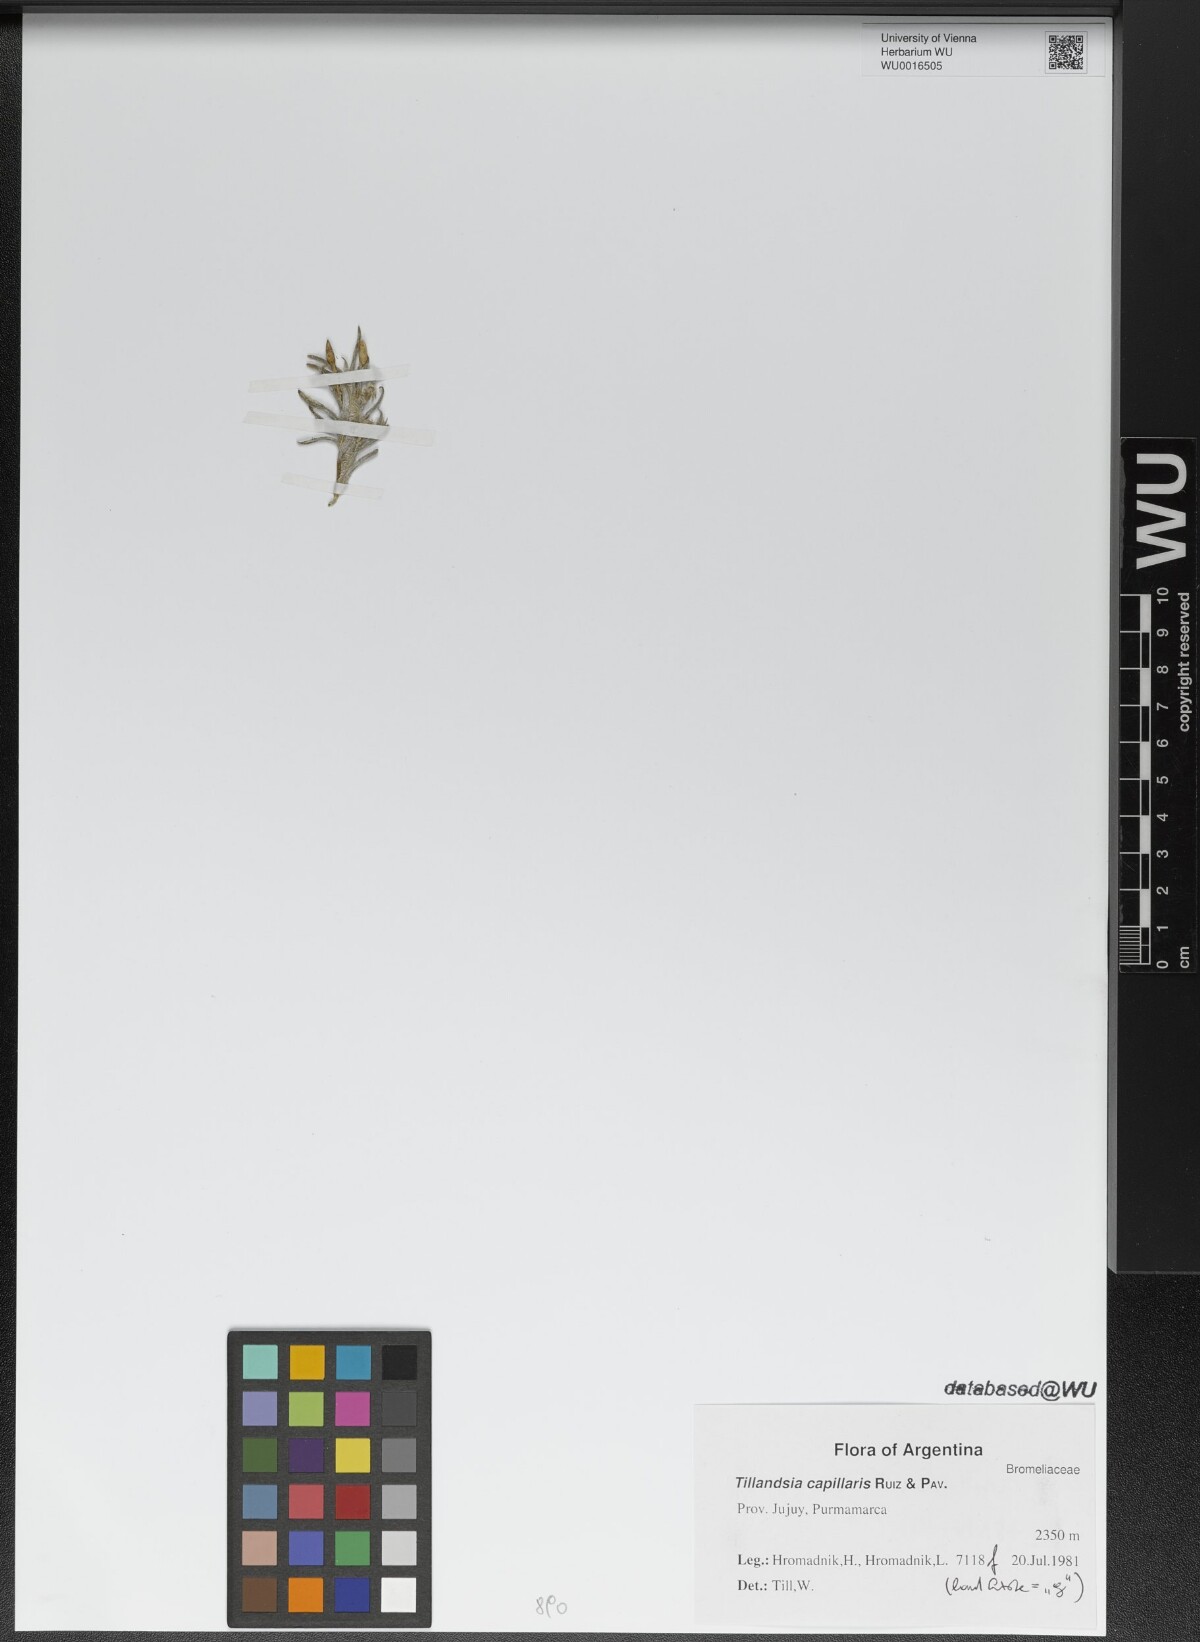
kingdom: Plantae
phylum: Tracheophyta
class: Liliopsida
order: Poales
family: Bromeliaceae
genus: Tillandsia
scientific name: Tillandsia capillaris
